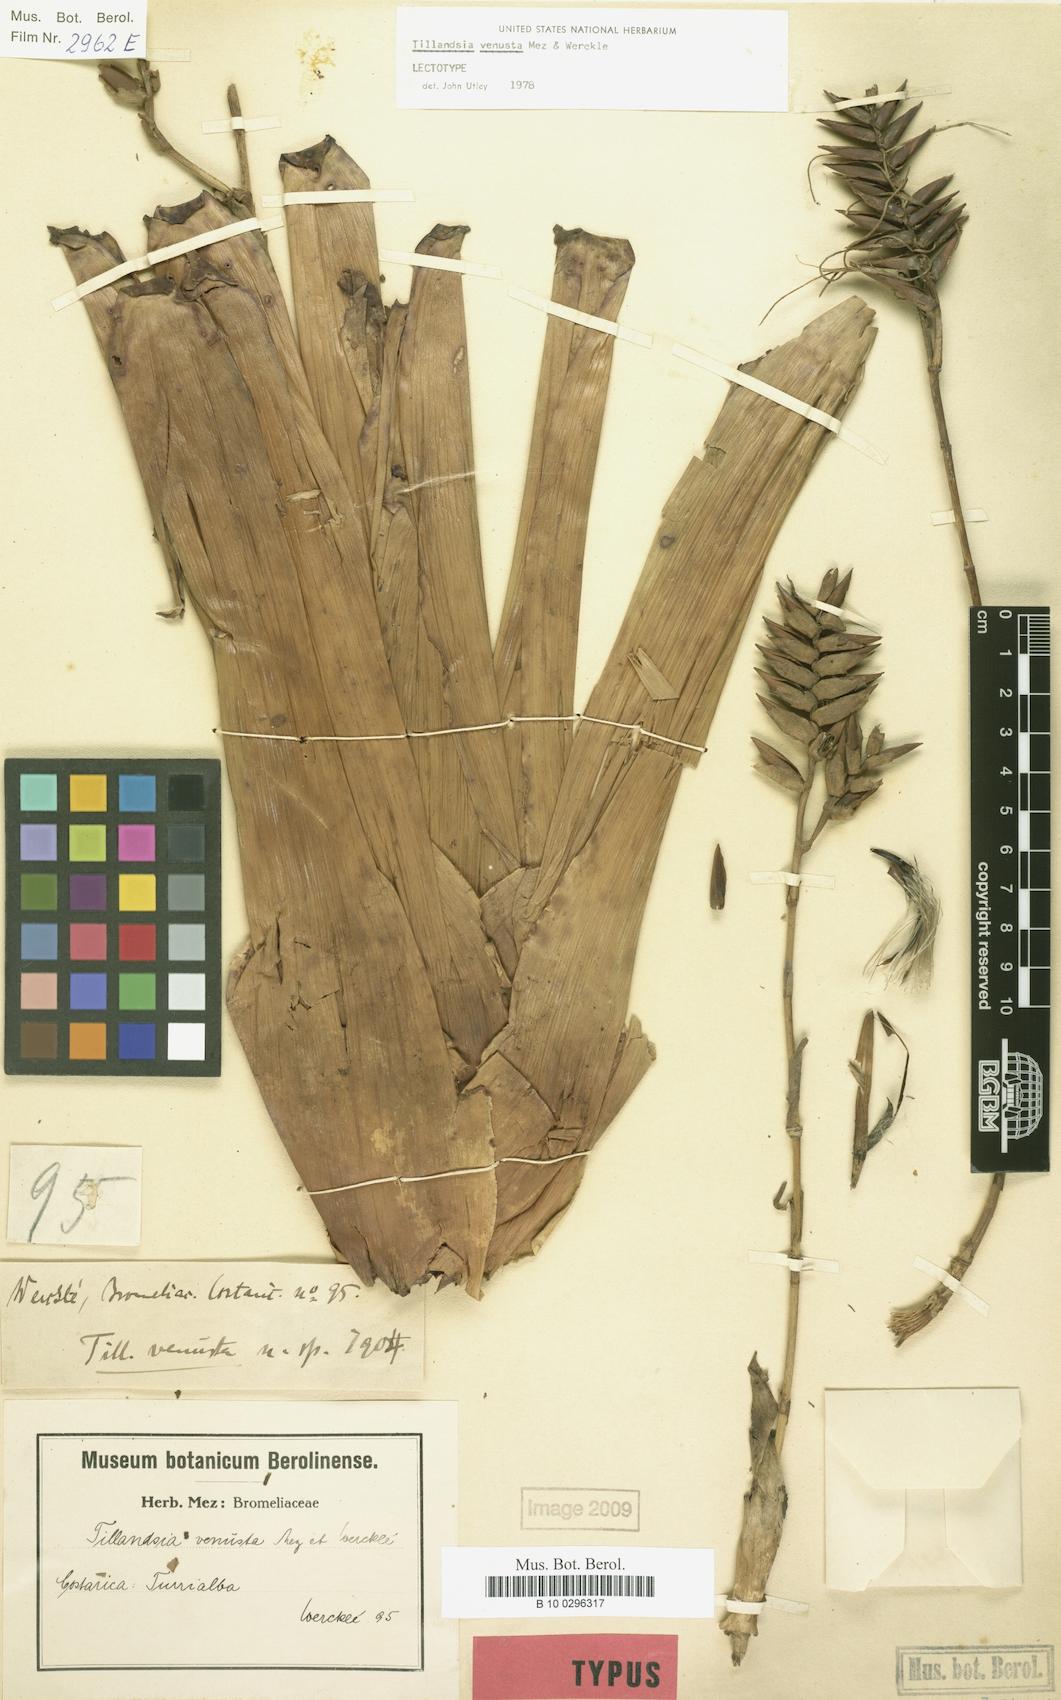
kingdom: Plantae
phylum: Tracheophyta
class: Liliopsida
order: Poales
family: Bromeliaceae
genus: Racinaea
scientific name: Racinaea venusta
